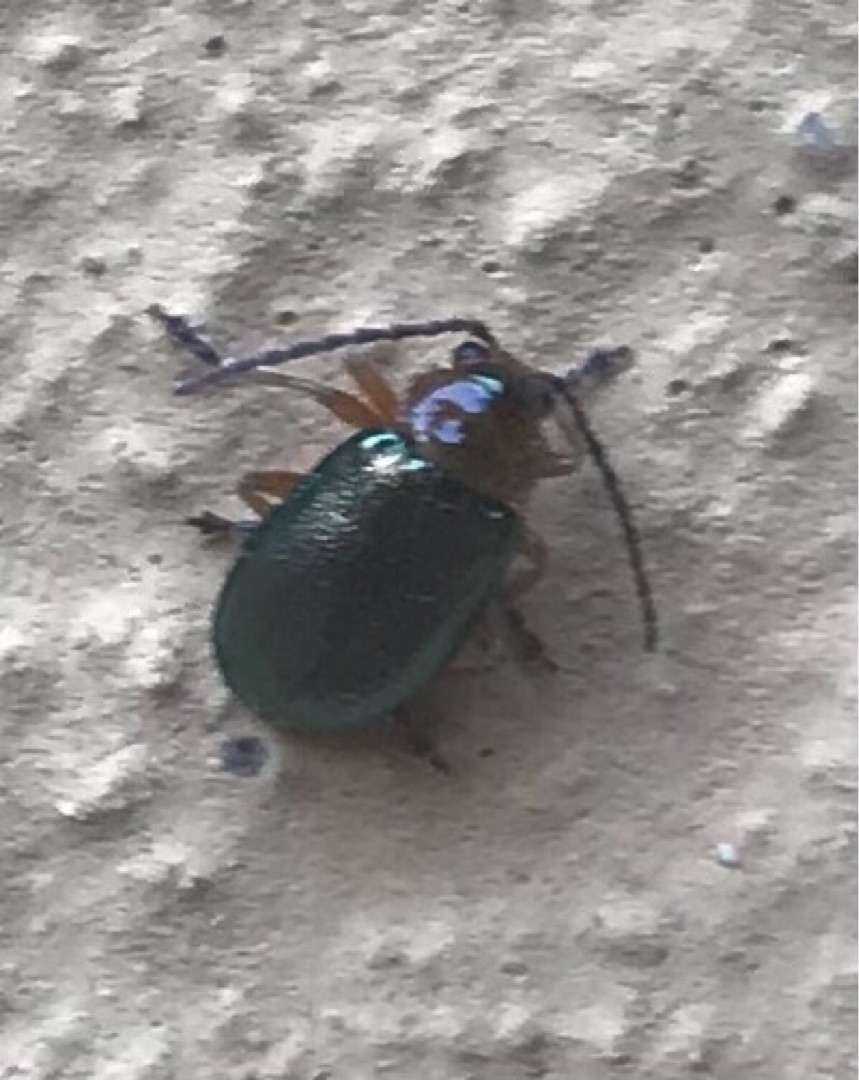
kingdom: Animalia
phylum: Arthropoda
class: Insecta
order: Coleoptera
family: Chrysomelidae
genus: Sermylassa
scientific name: Sermylassa halensis
